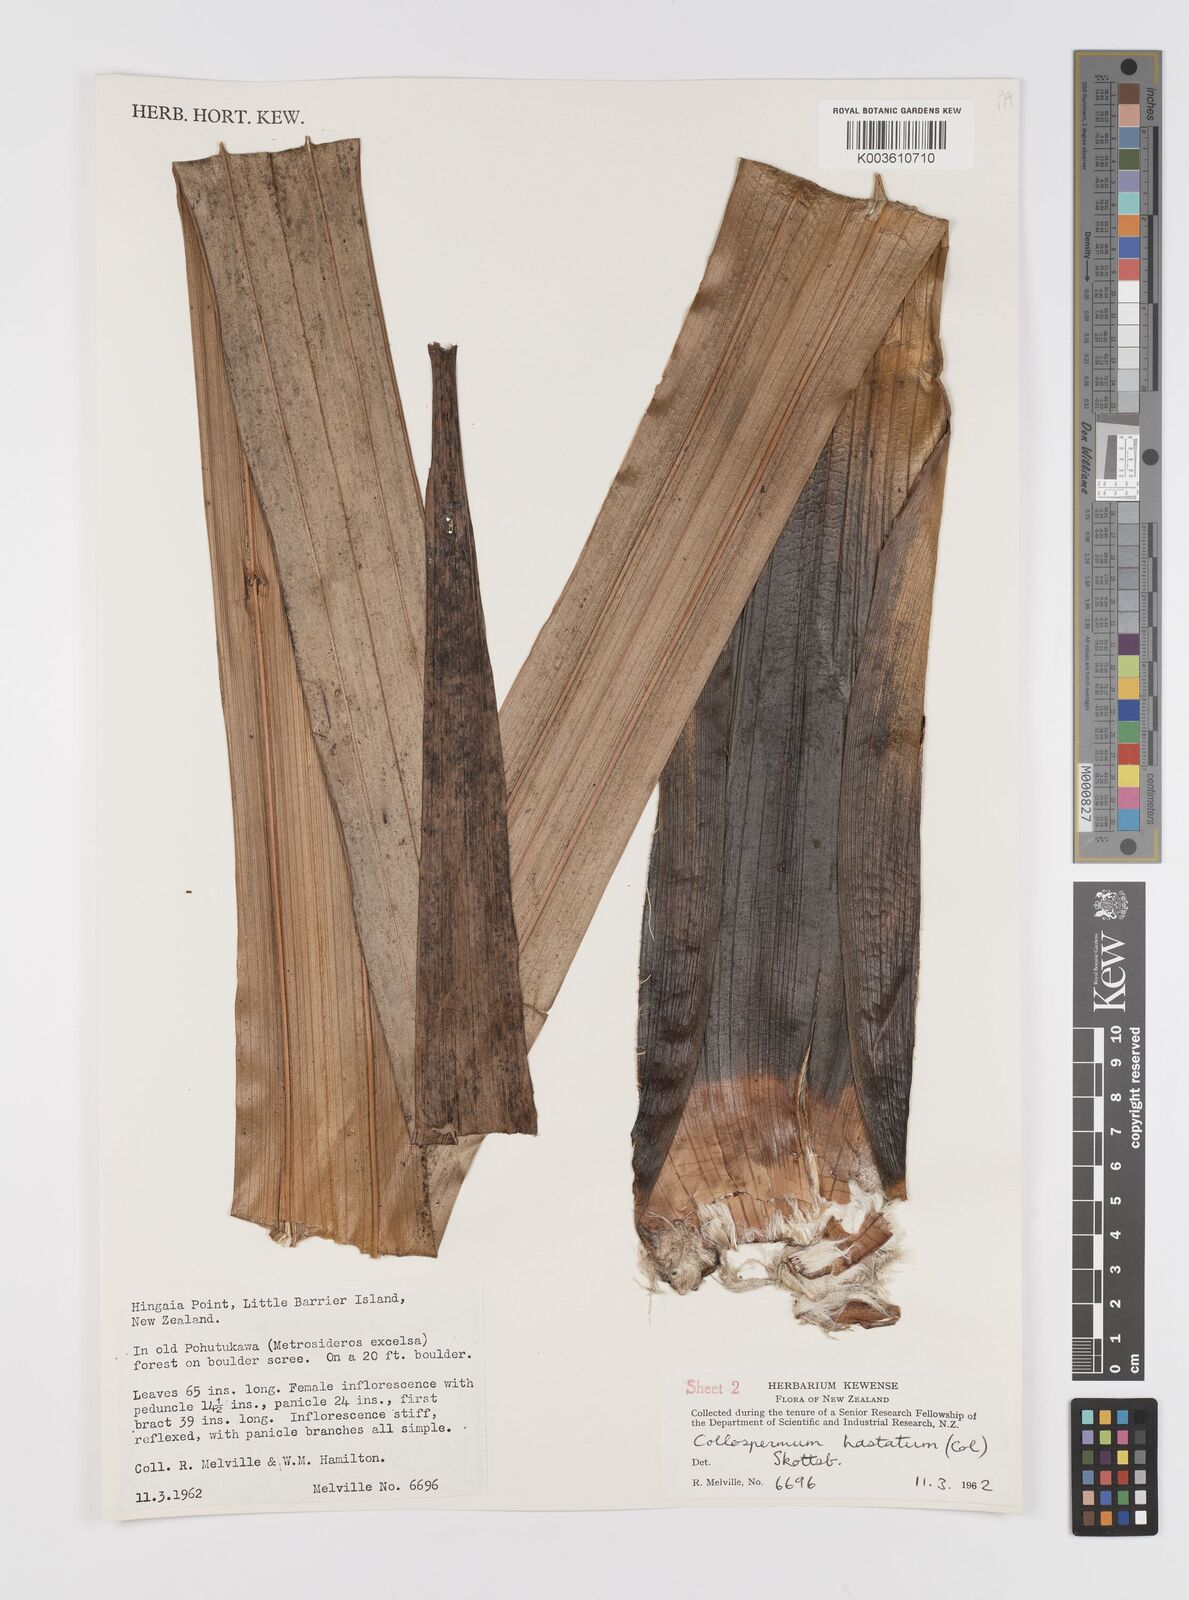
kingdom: Plantae
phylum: Tracheophyta
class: Liliopsida
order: Asparagales
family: Asteliaceae
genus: Astelia
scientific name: Astelia hastata
